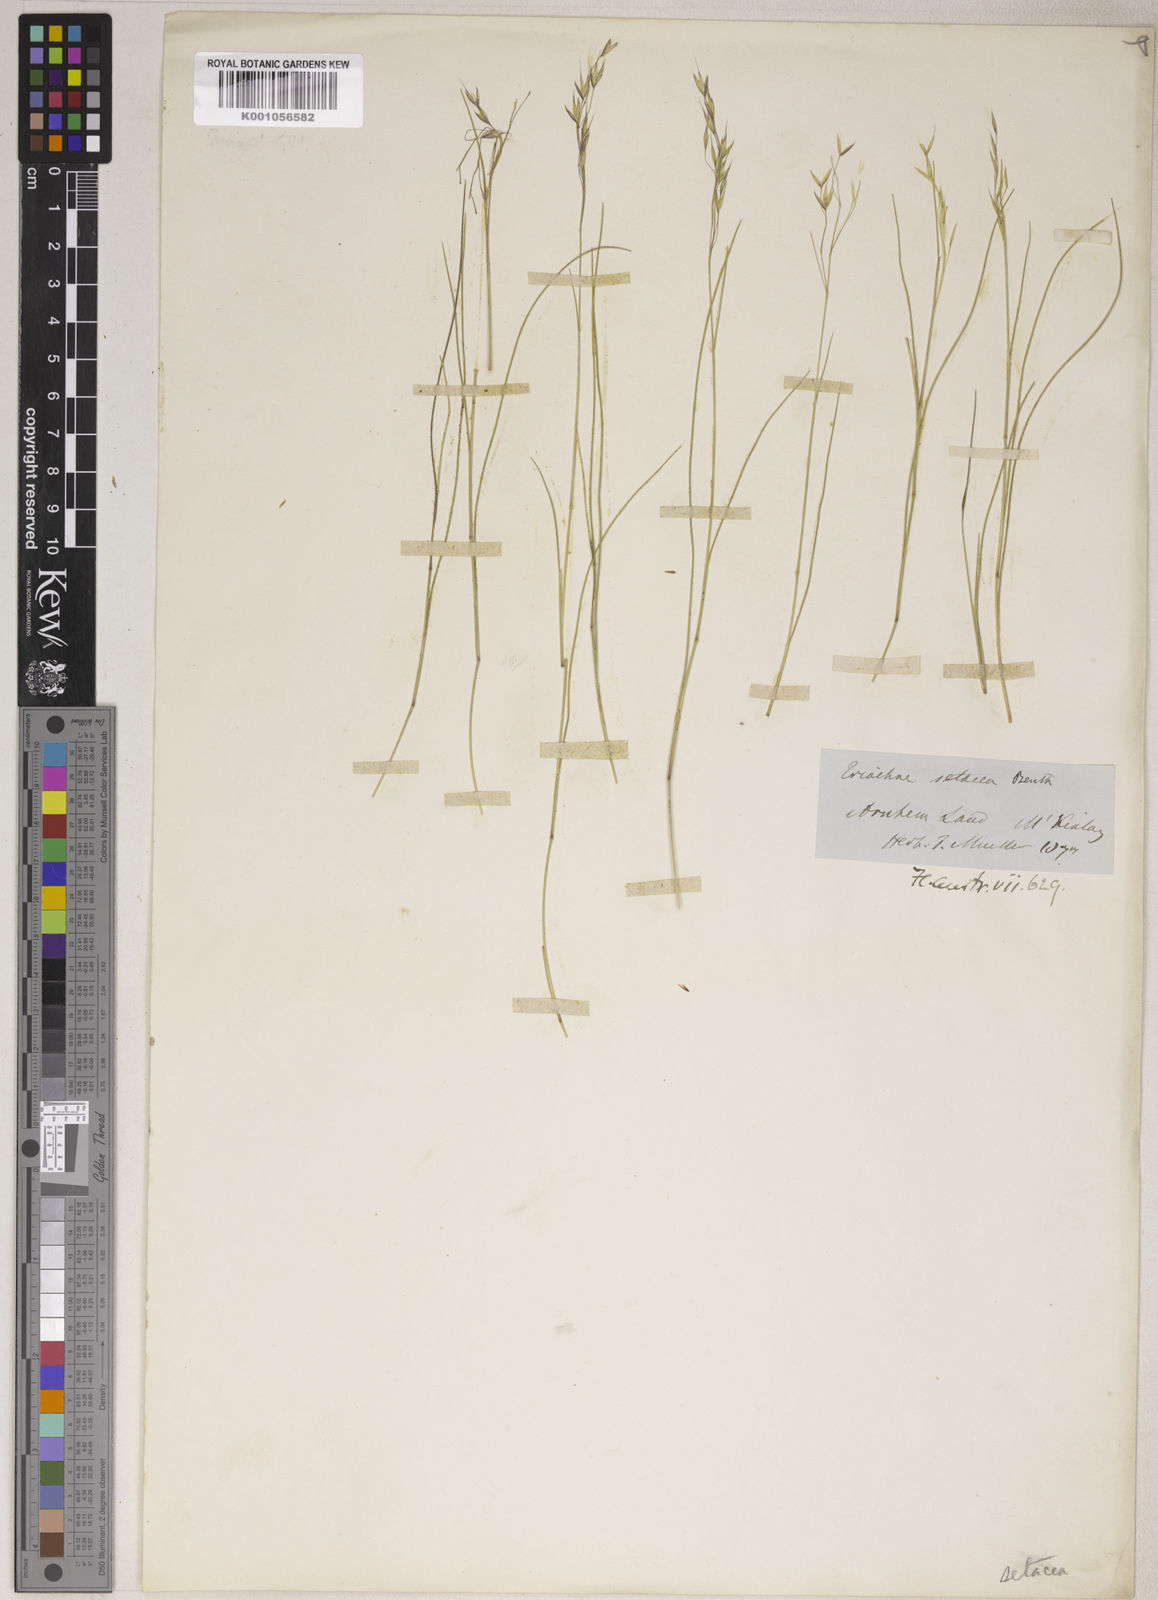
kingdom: Plantae
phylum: Tracheophyta
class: Liliopsida
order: Poales
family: Poaceae
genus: Eriachne
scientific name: Eriachne avenacea
